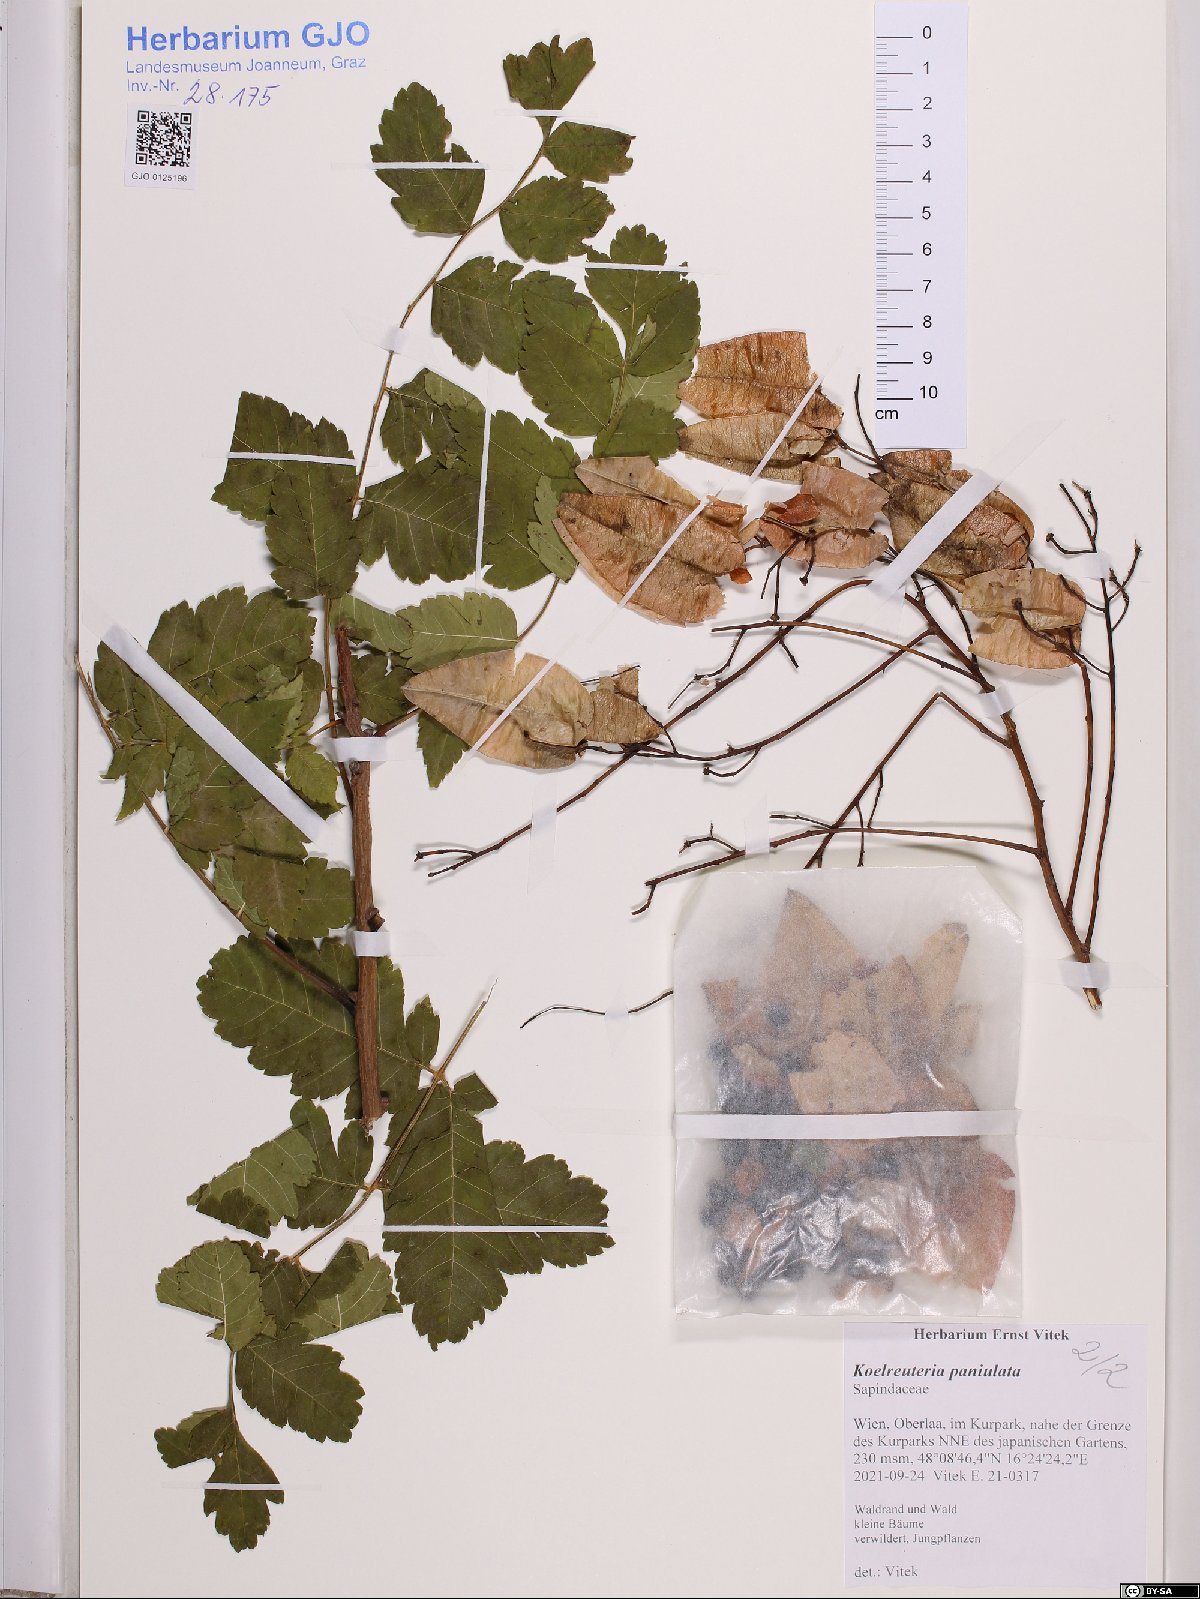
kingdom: Plantae
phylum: Tracheophyta
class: Magnoliopsida
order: Sapindales
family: Sapindaceae
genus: Koelreuteria
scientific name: Koelreuteria paniculata
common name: Pride-of-india
